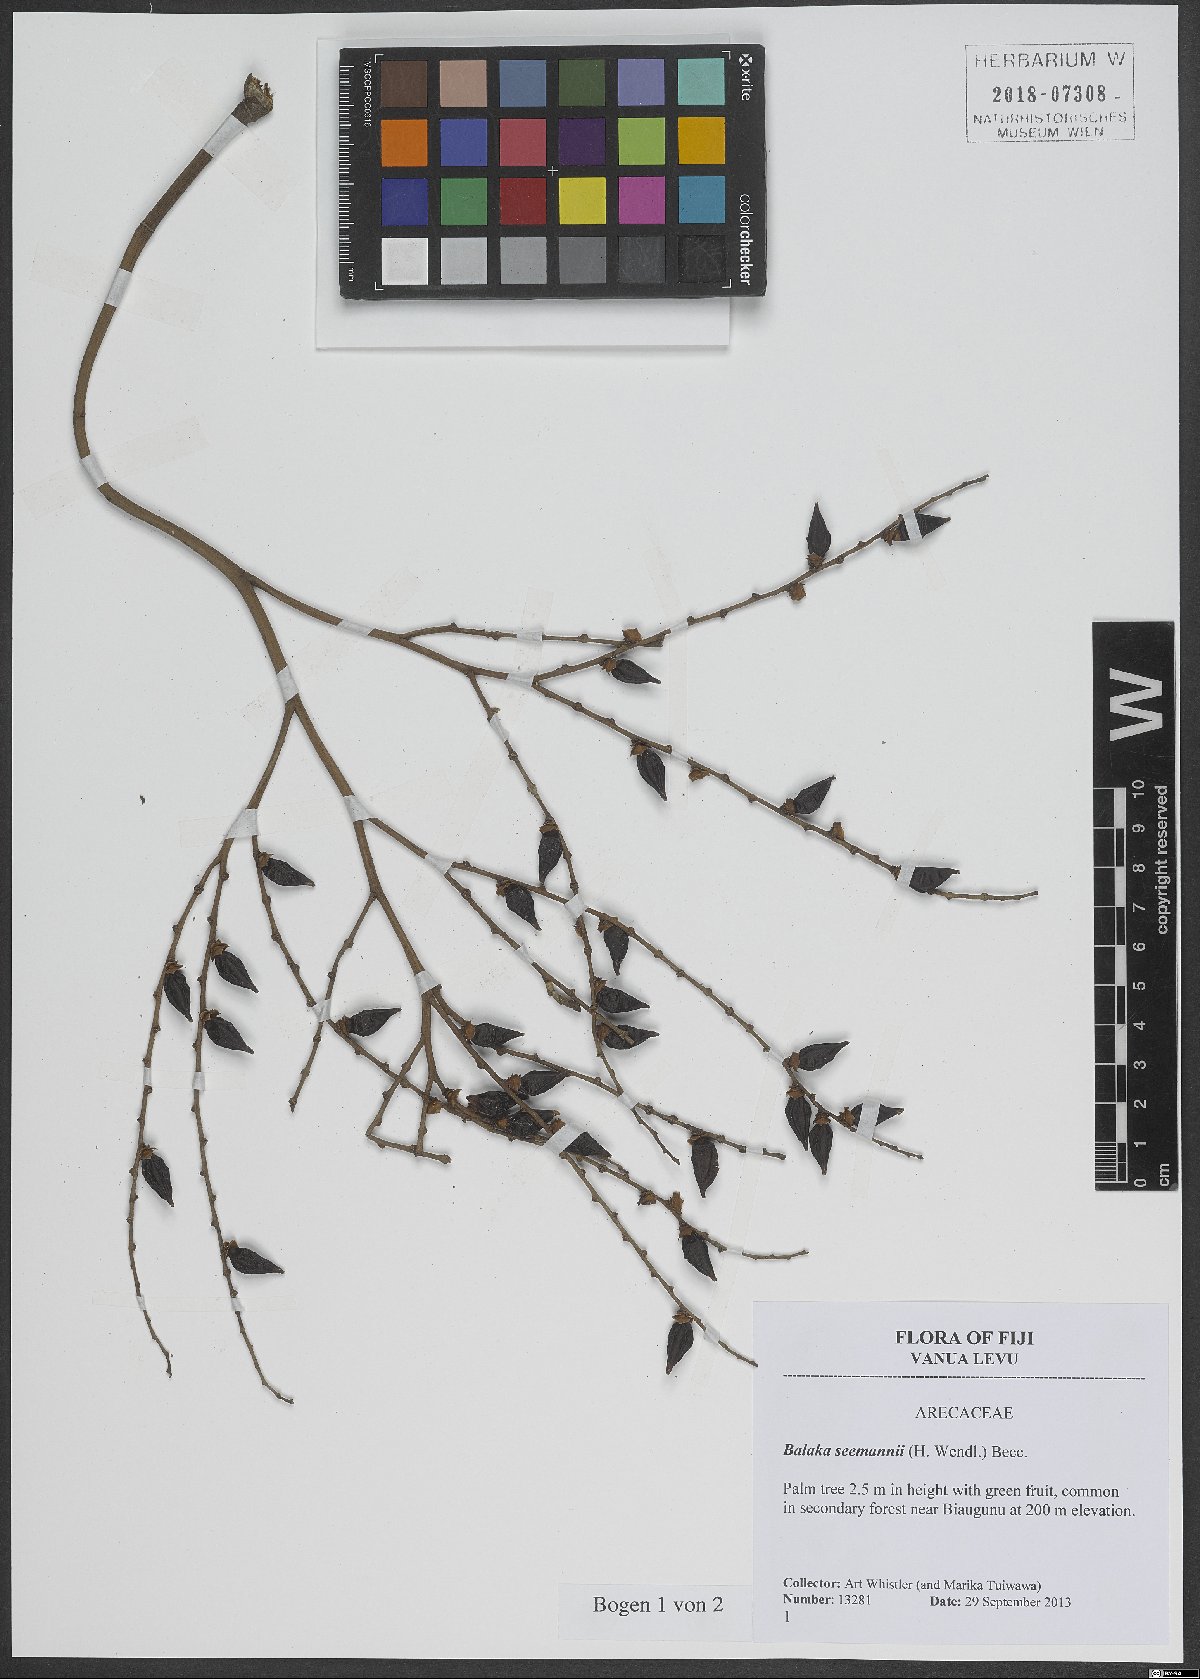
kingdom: Plantae
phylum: Tracheophyta
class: Liliopsida
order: Arecales
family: Arecaceae
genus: Balaka
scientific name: Balaka seemannii
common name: Balaka palm
